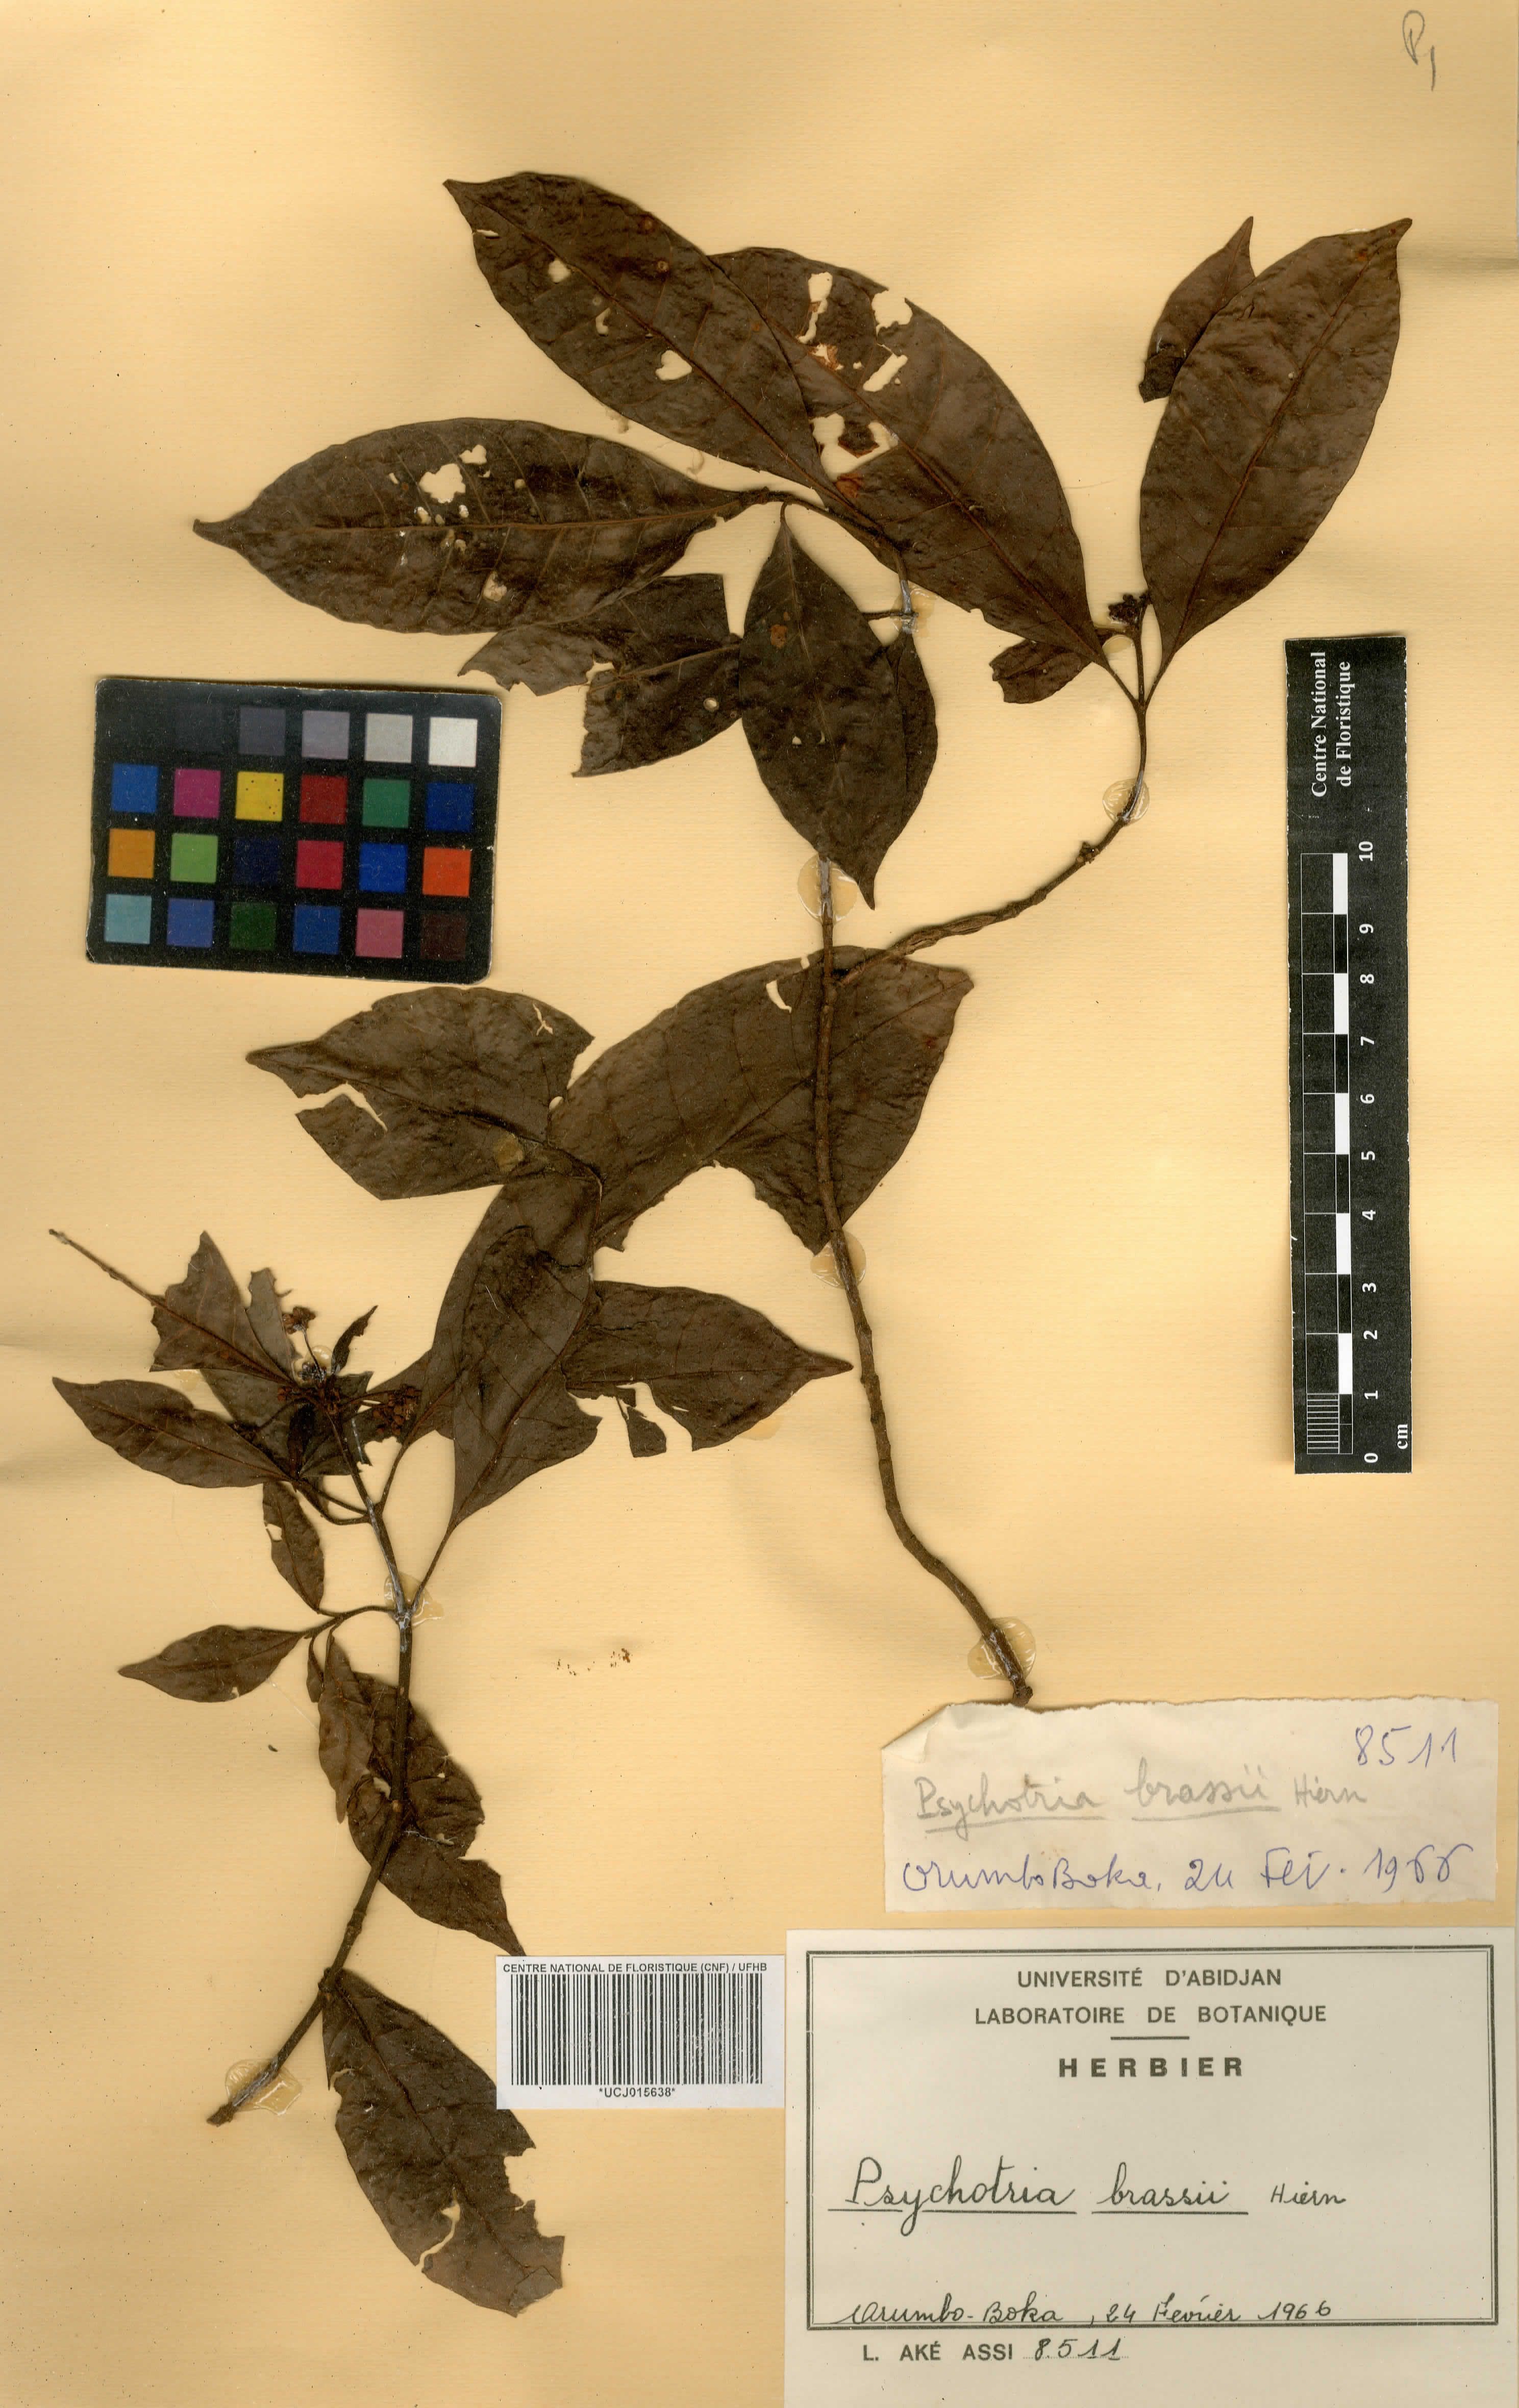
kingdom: Plantae
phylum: Tracheophyta
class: Magnoliopsida
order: Gentianales
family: Rubiaceae
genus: Psychotria
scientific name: Psychotria brassii
